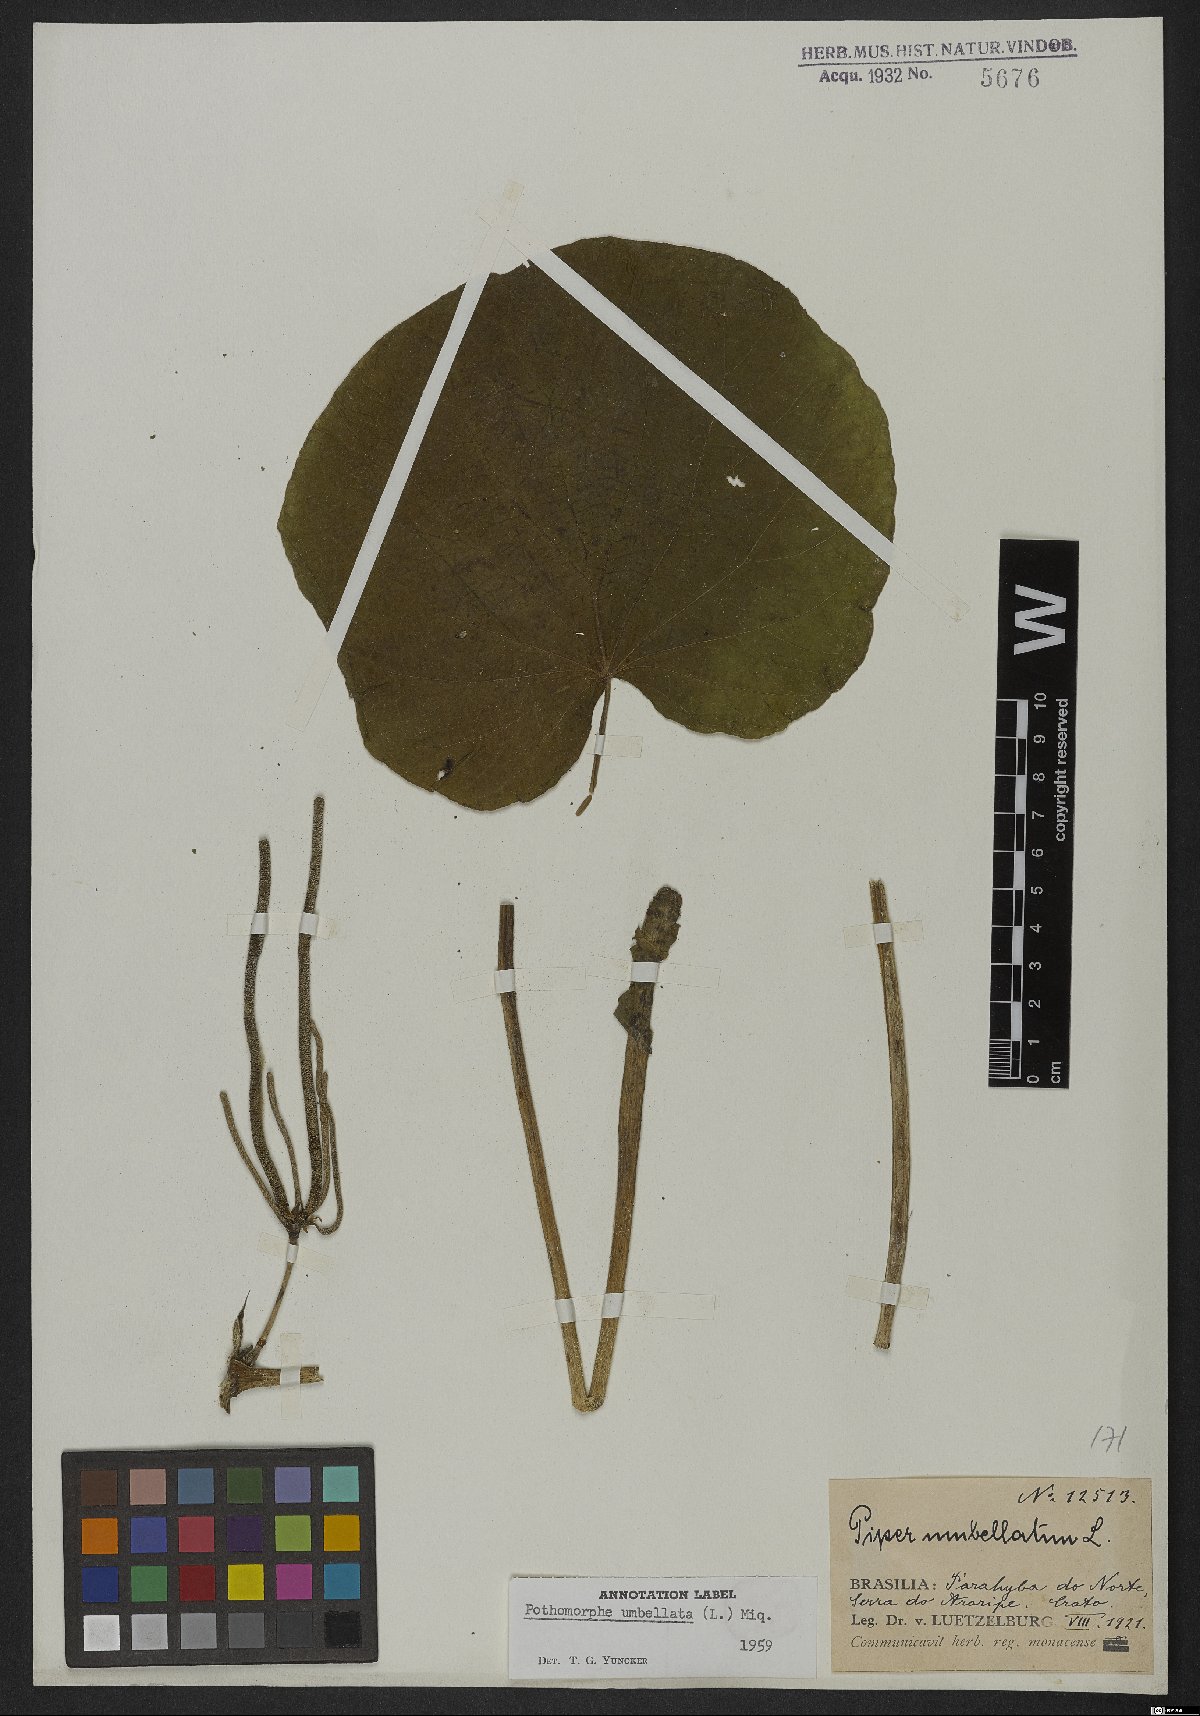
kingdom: Plantae
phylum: Tracheophyta
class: Magnoliopsida
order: Piperales
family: Piperaceae
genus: Piper
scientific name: Piper umbellatum
